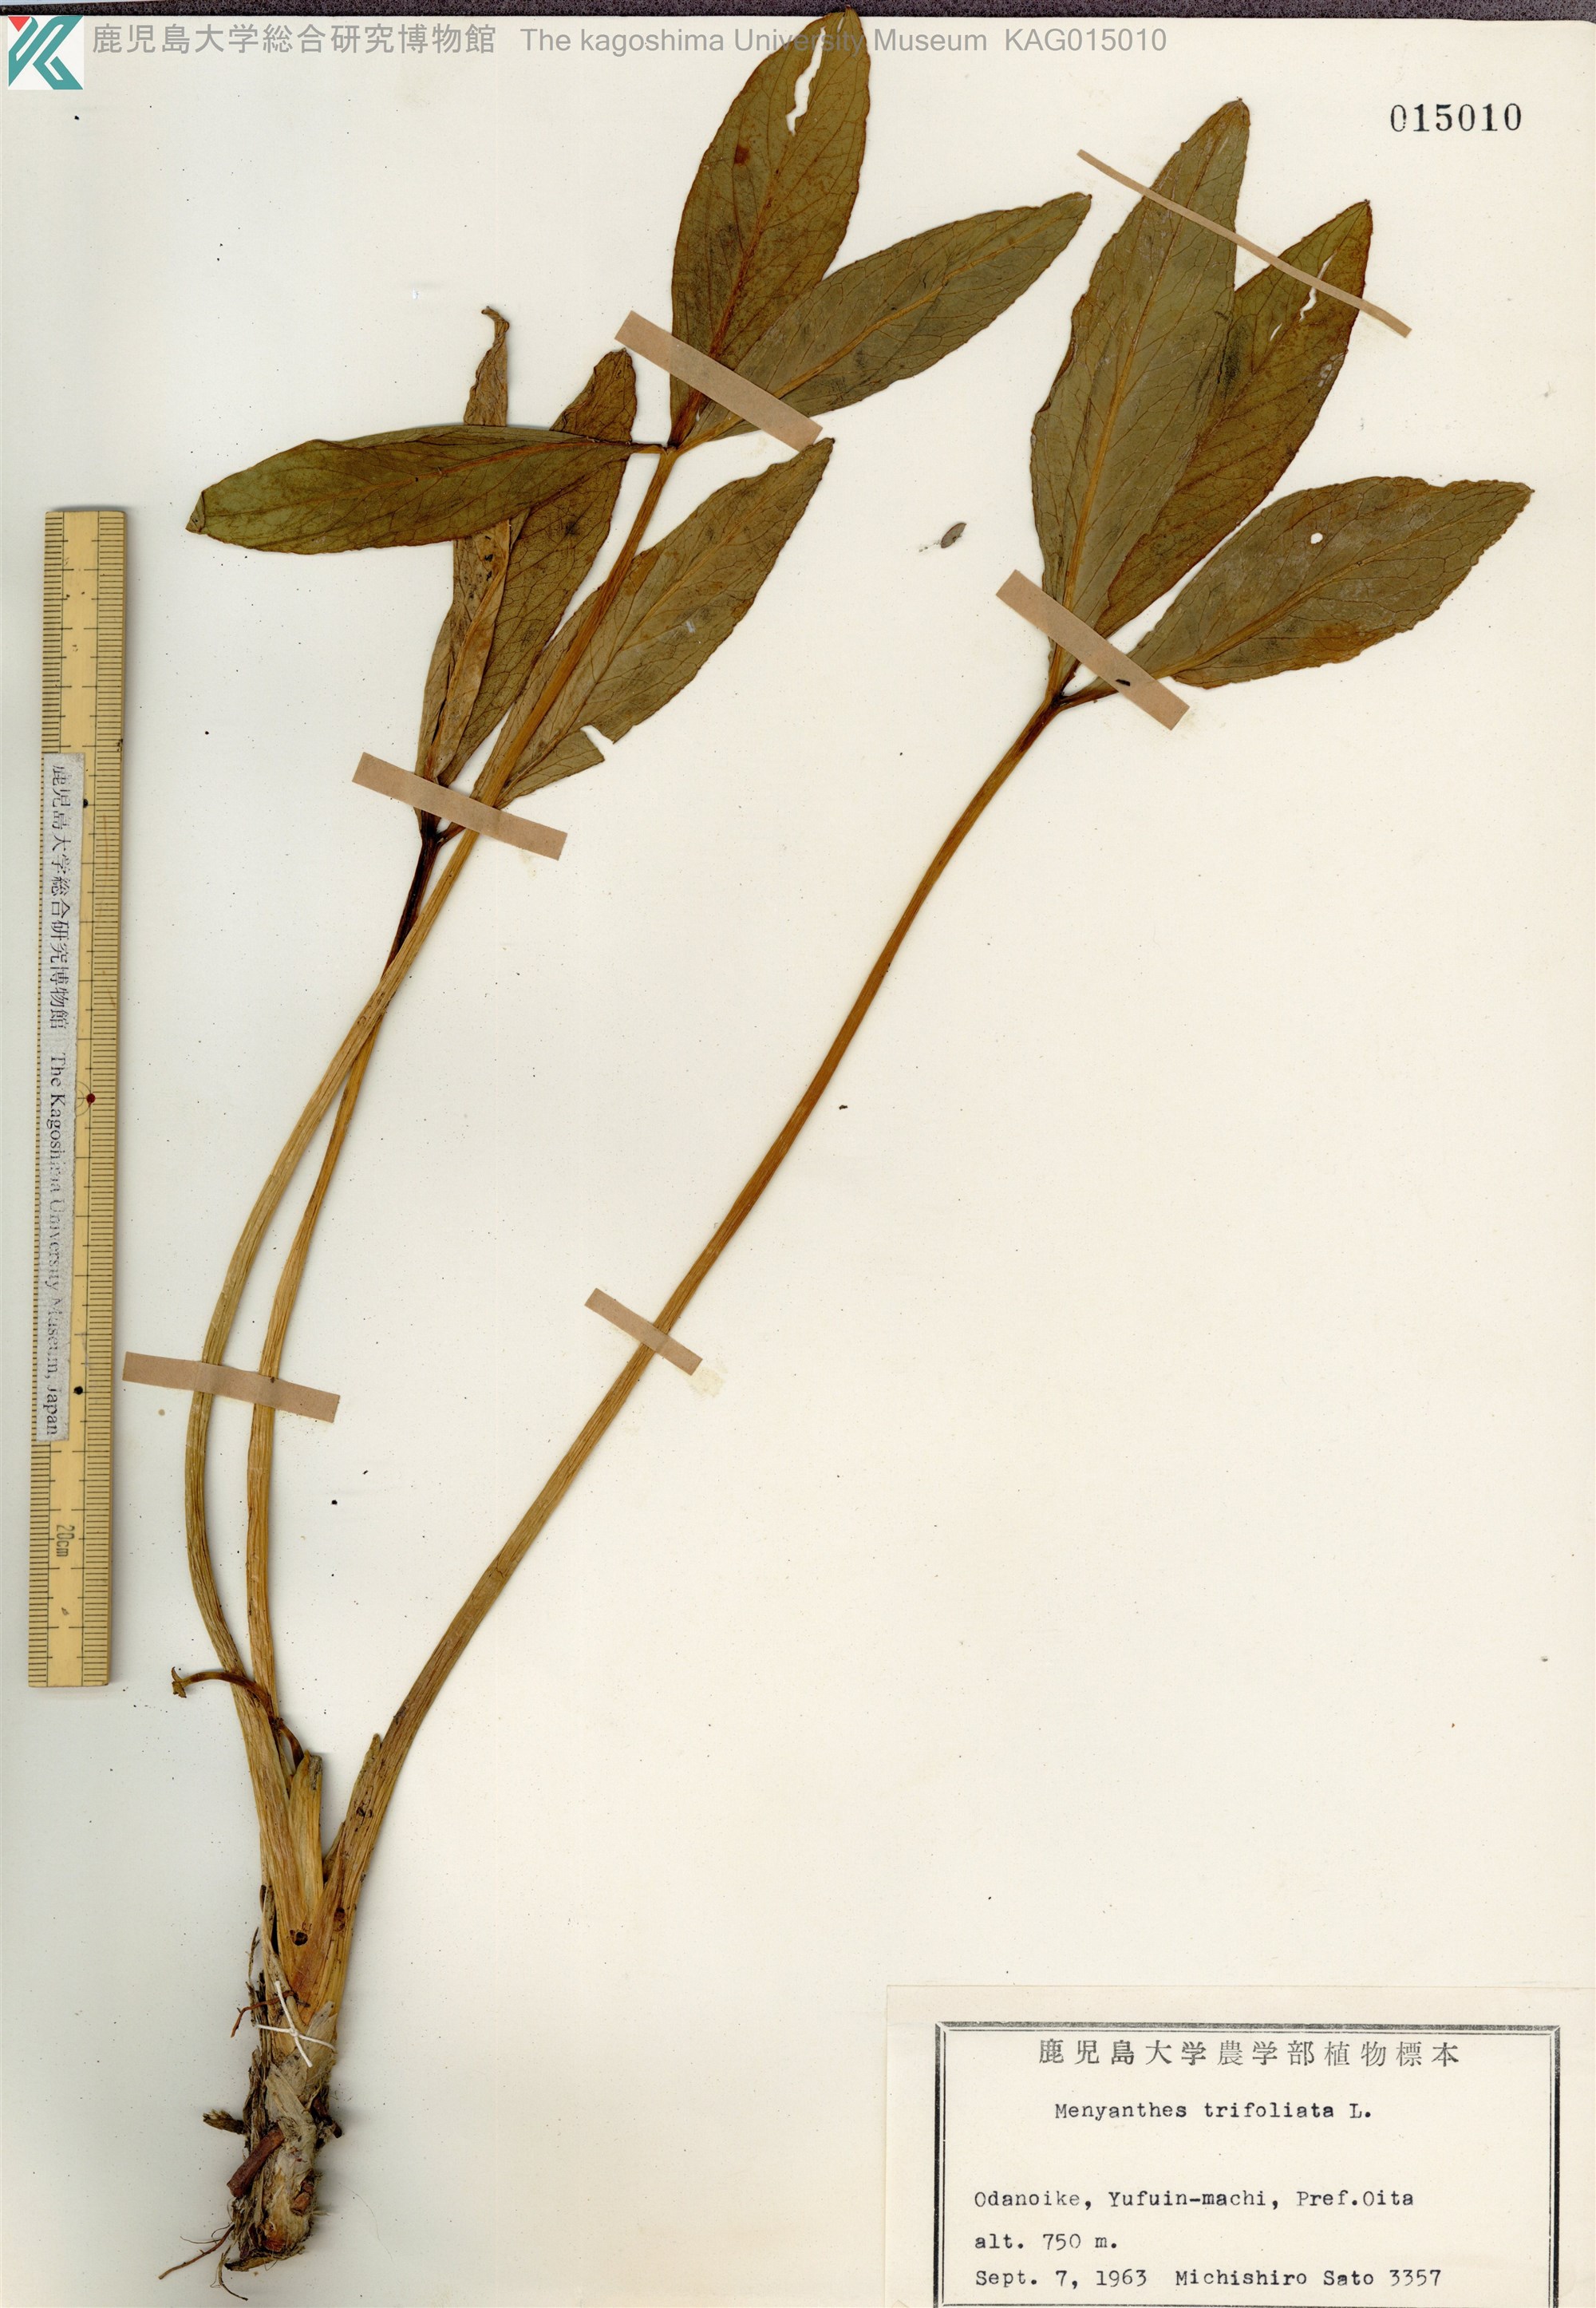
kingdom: Plantae
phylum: Tracheophyta
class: Magnoliopsida
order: Asterales
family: Menyanthaceae
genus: Menyanthes
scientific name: Menyanthes trifoliata
